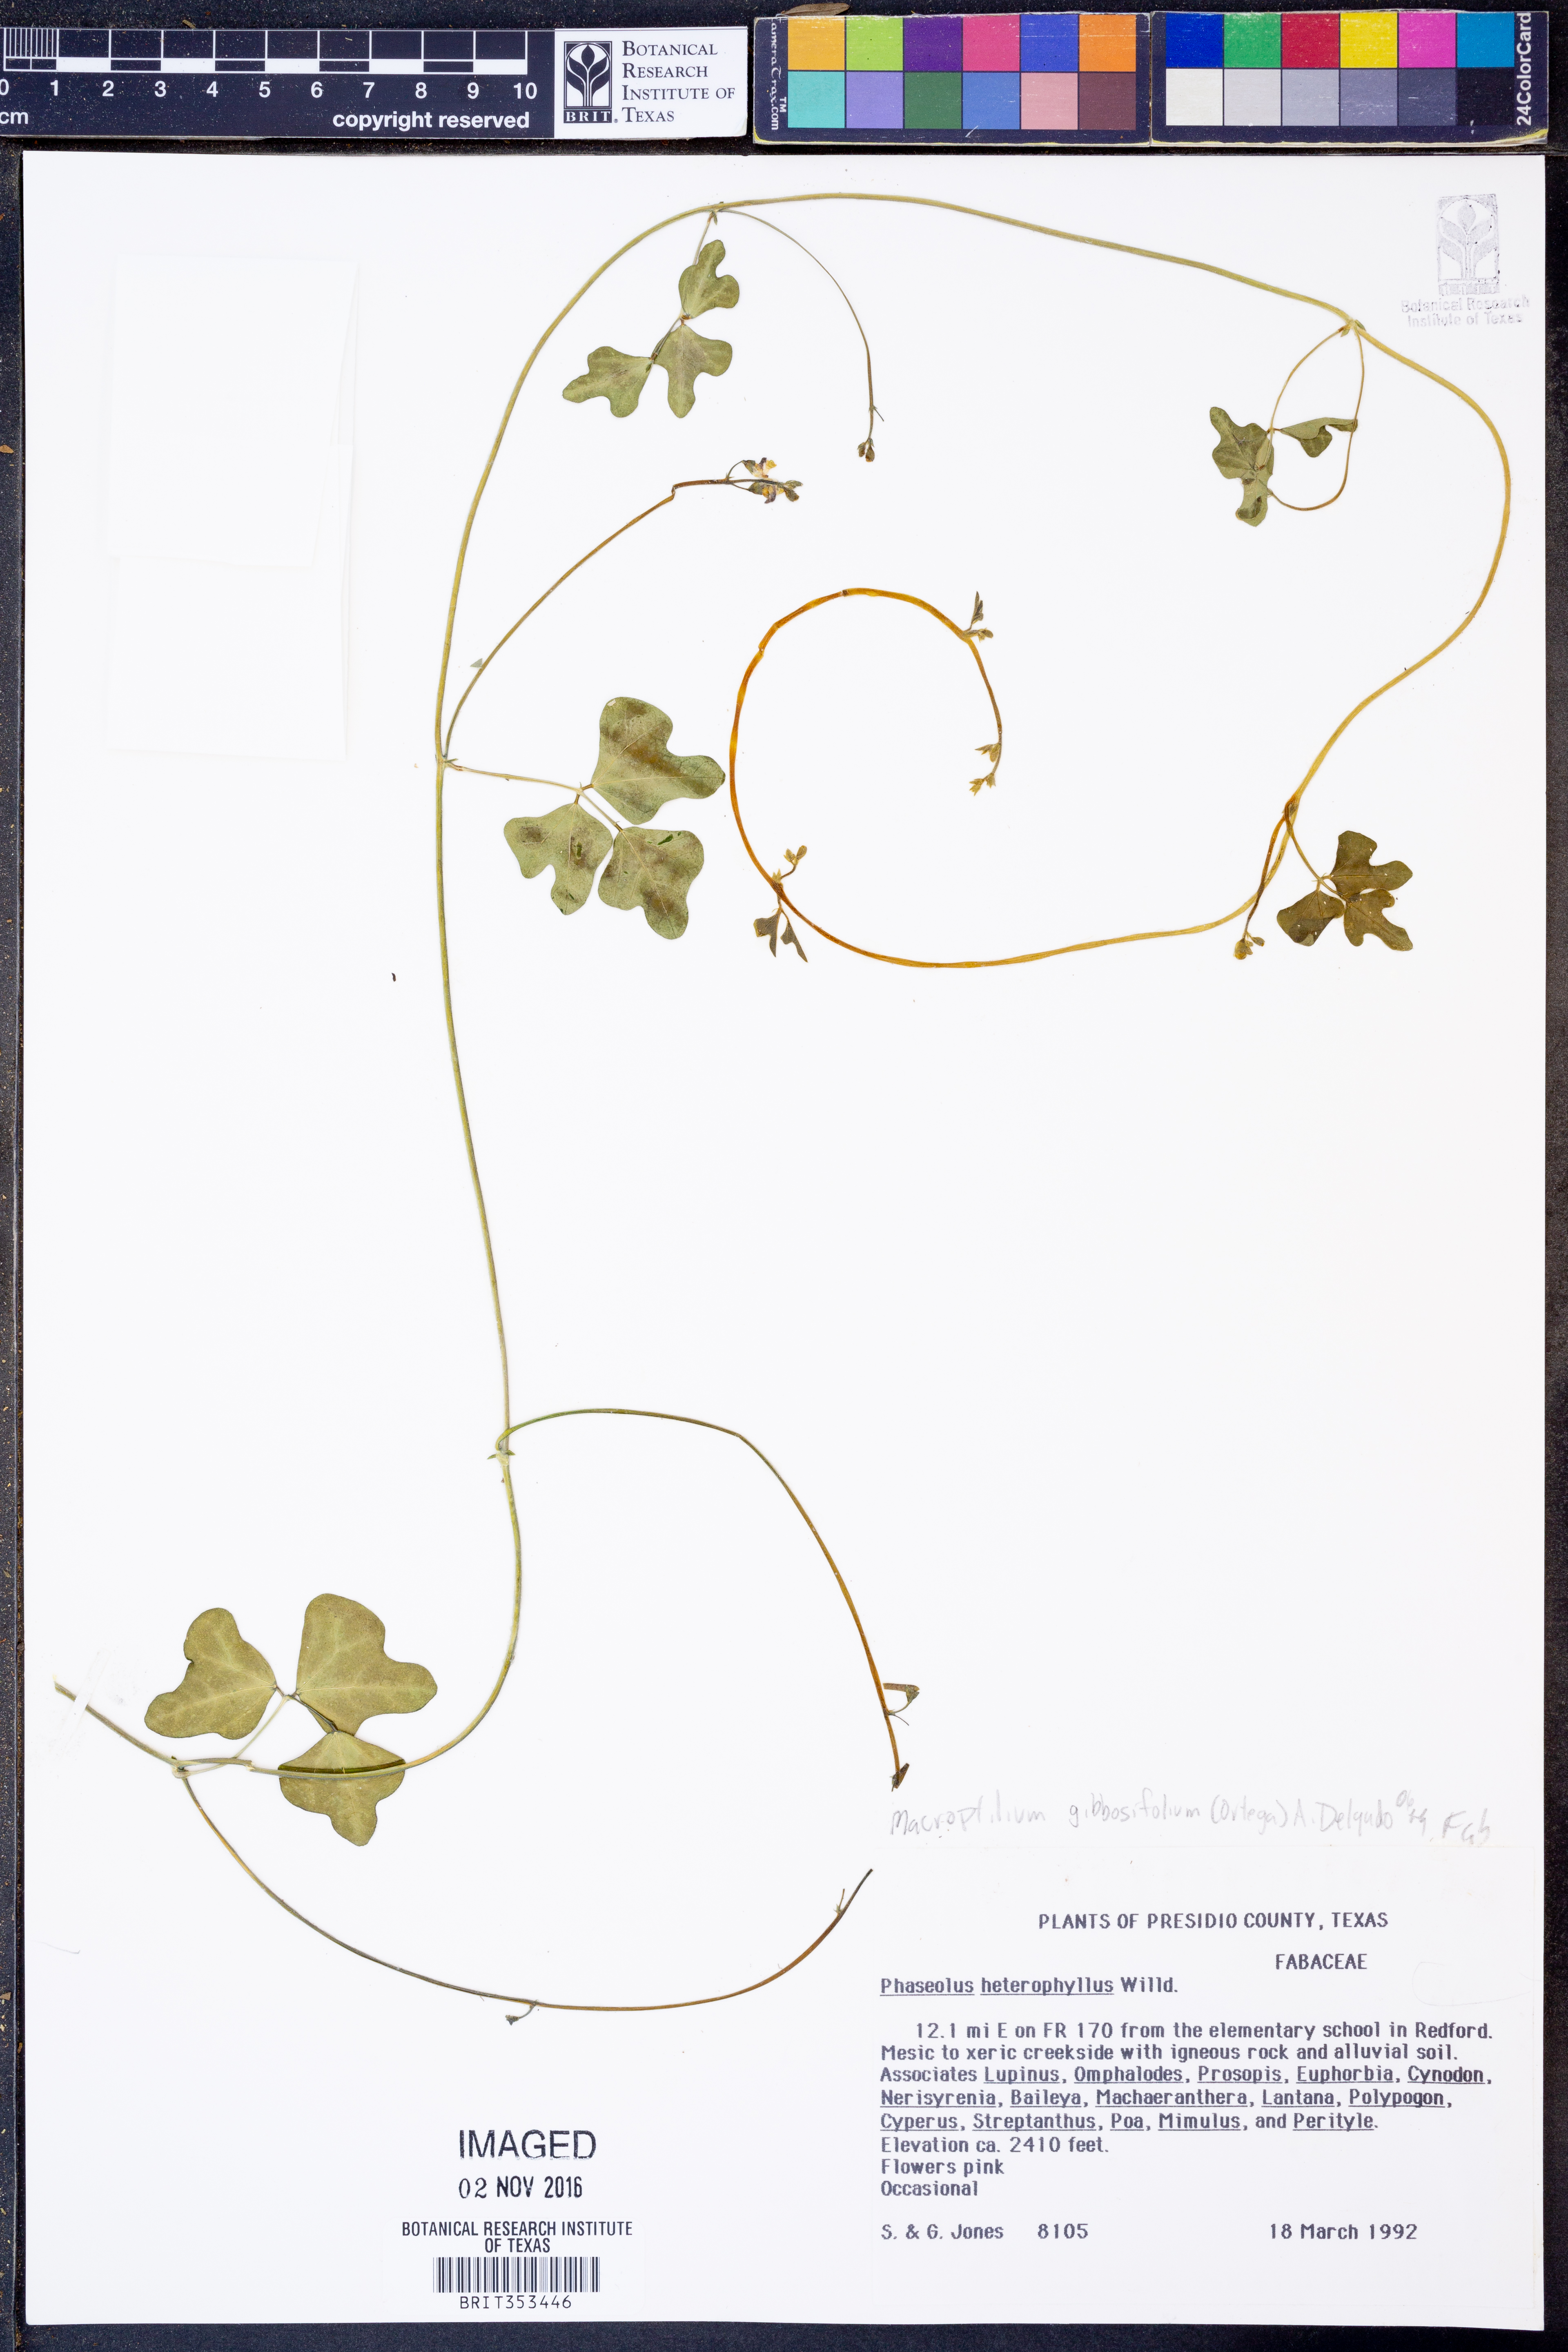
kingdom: Plantae
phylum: Tracheophyta
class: Magnoliopsida
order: Fabales
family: Fabaceae
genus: Macroptilium
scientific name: Macroptilium gibbosifolium
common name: Variableleaf bushbean
